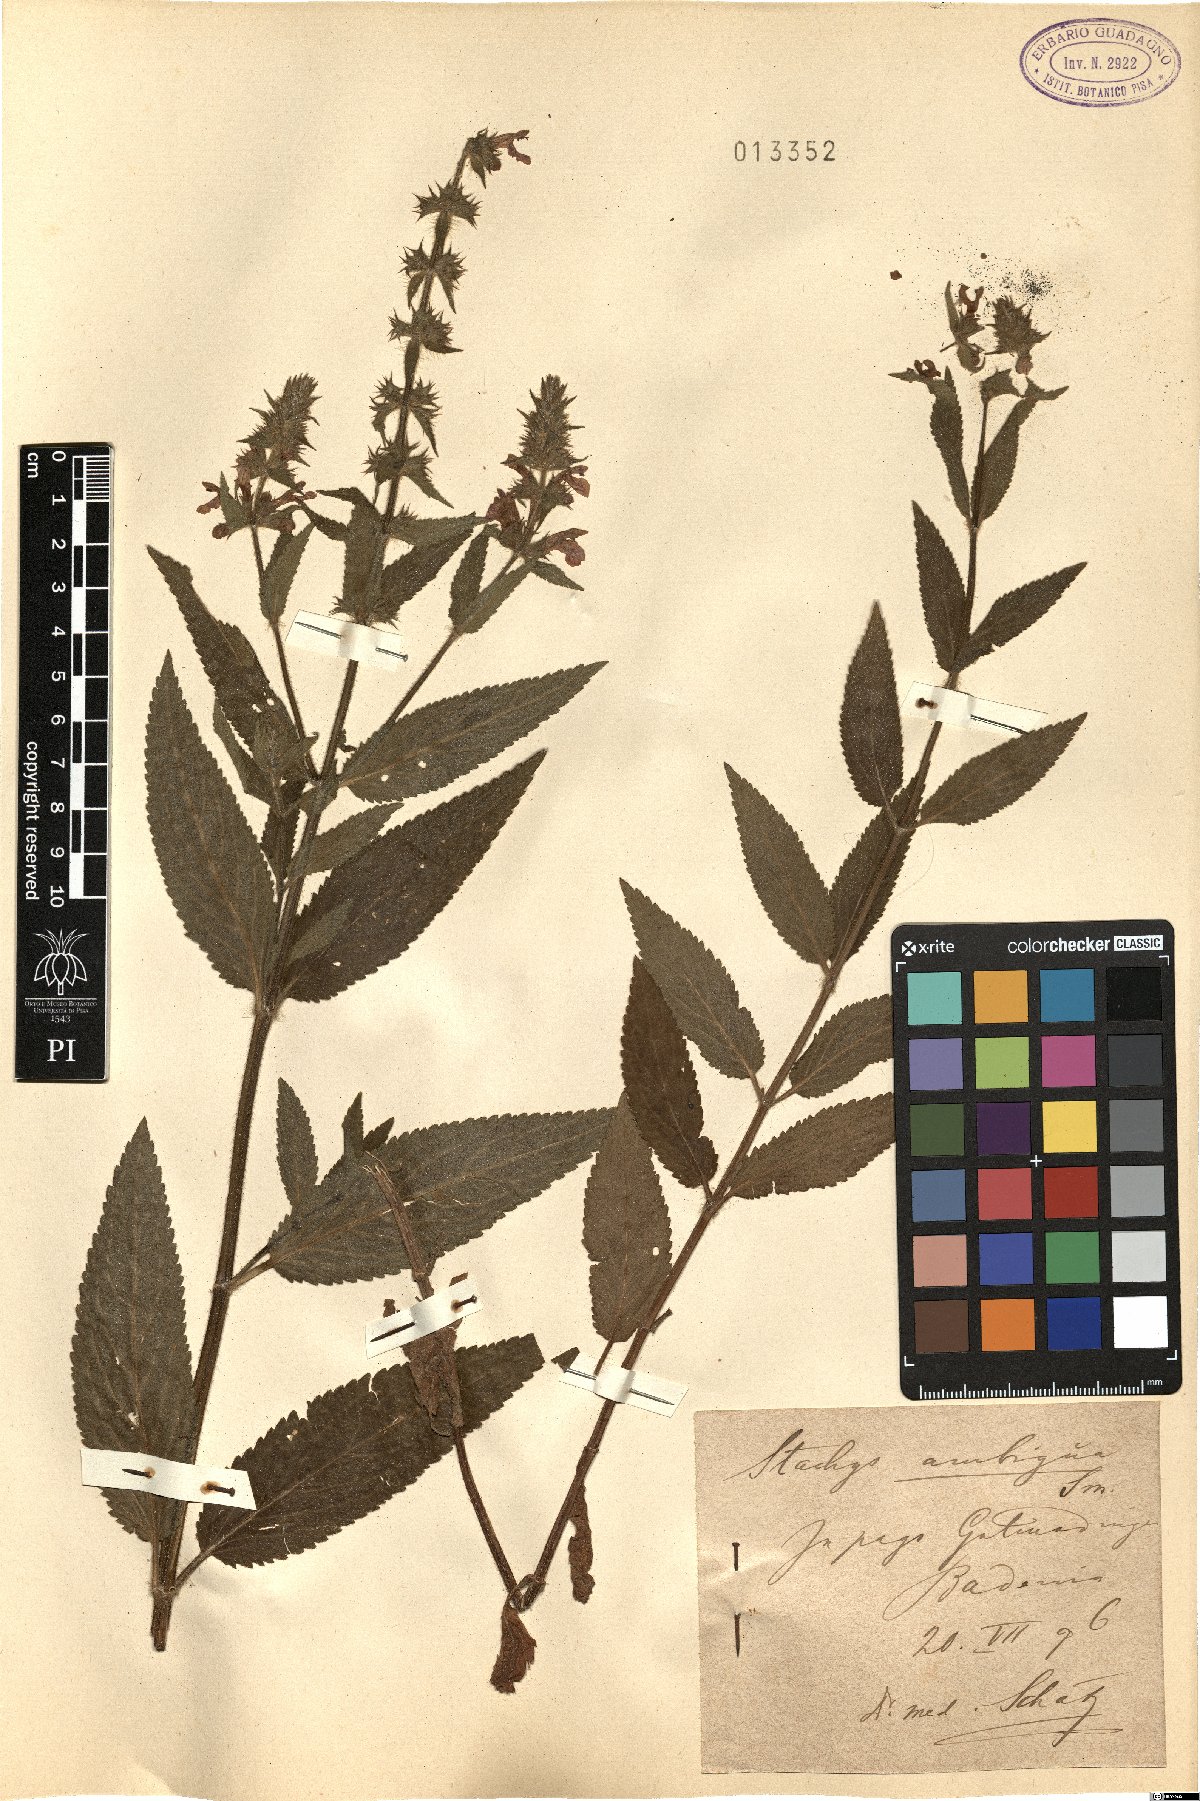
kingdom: Plantae
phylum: Tracheophyta
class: Magnoliopsida
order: Lamiales
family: Lamiaceae
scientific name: Lamiaceae
